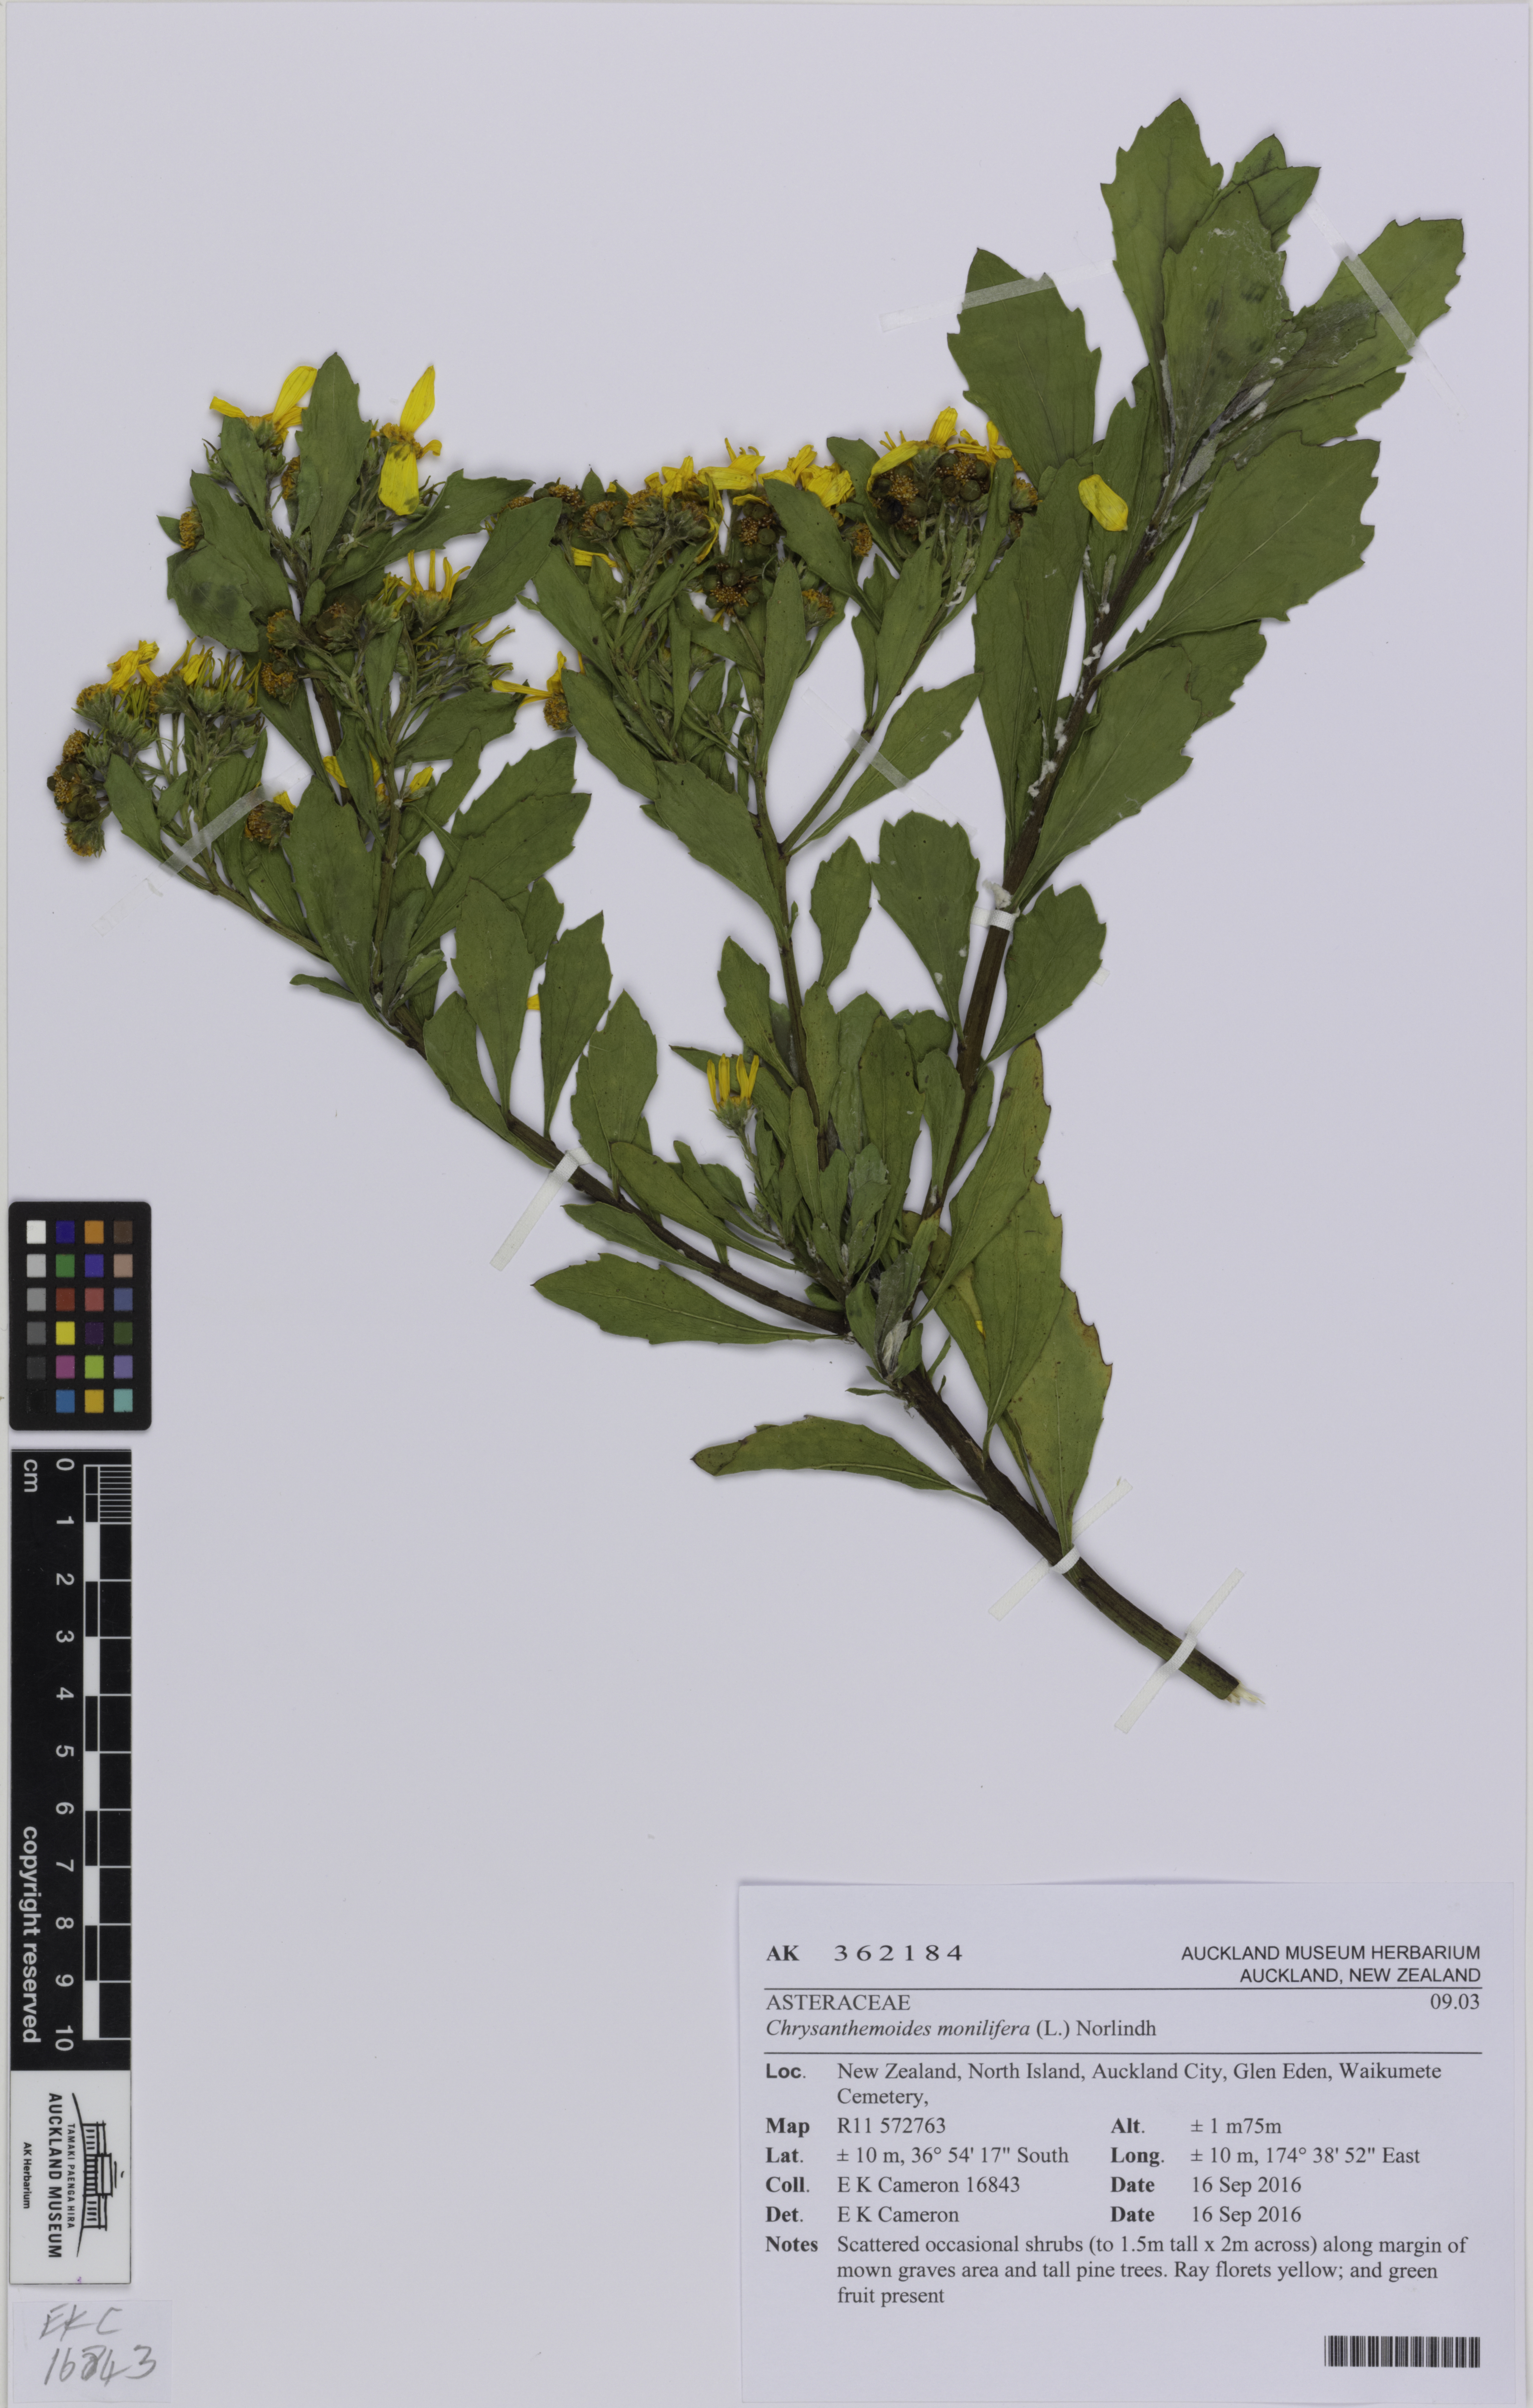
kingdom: Plantae
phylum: Tracheophyta
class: Magnoliopsida
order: Asterales
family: Asteraceae
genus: Osteospermum
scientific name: Osteospermum moniliferum
